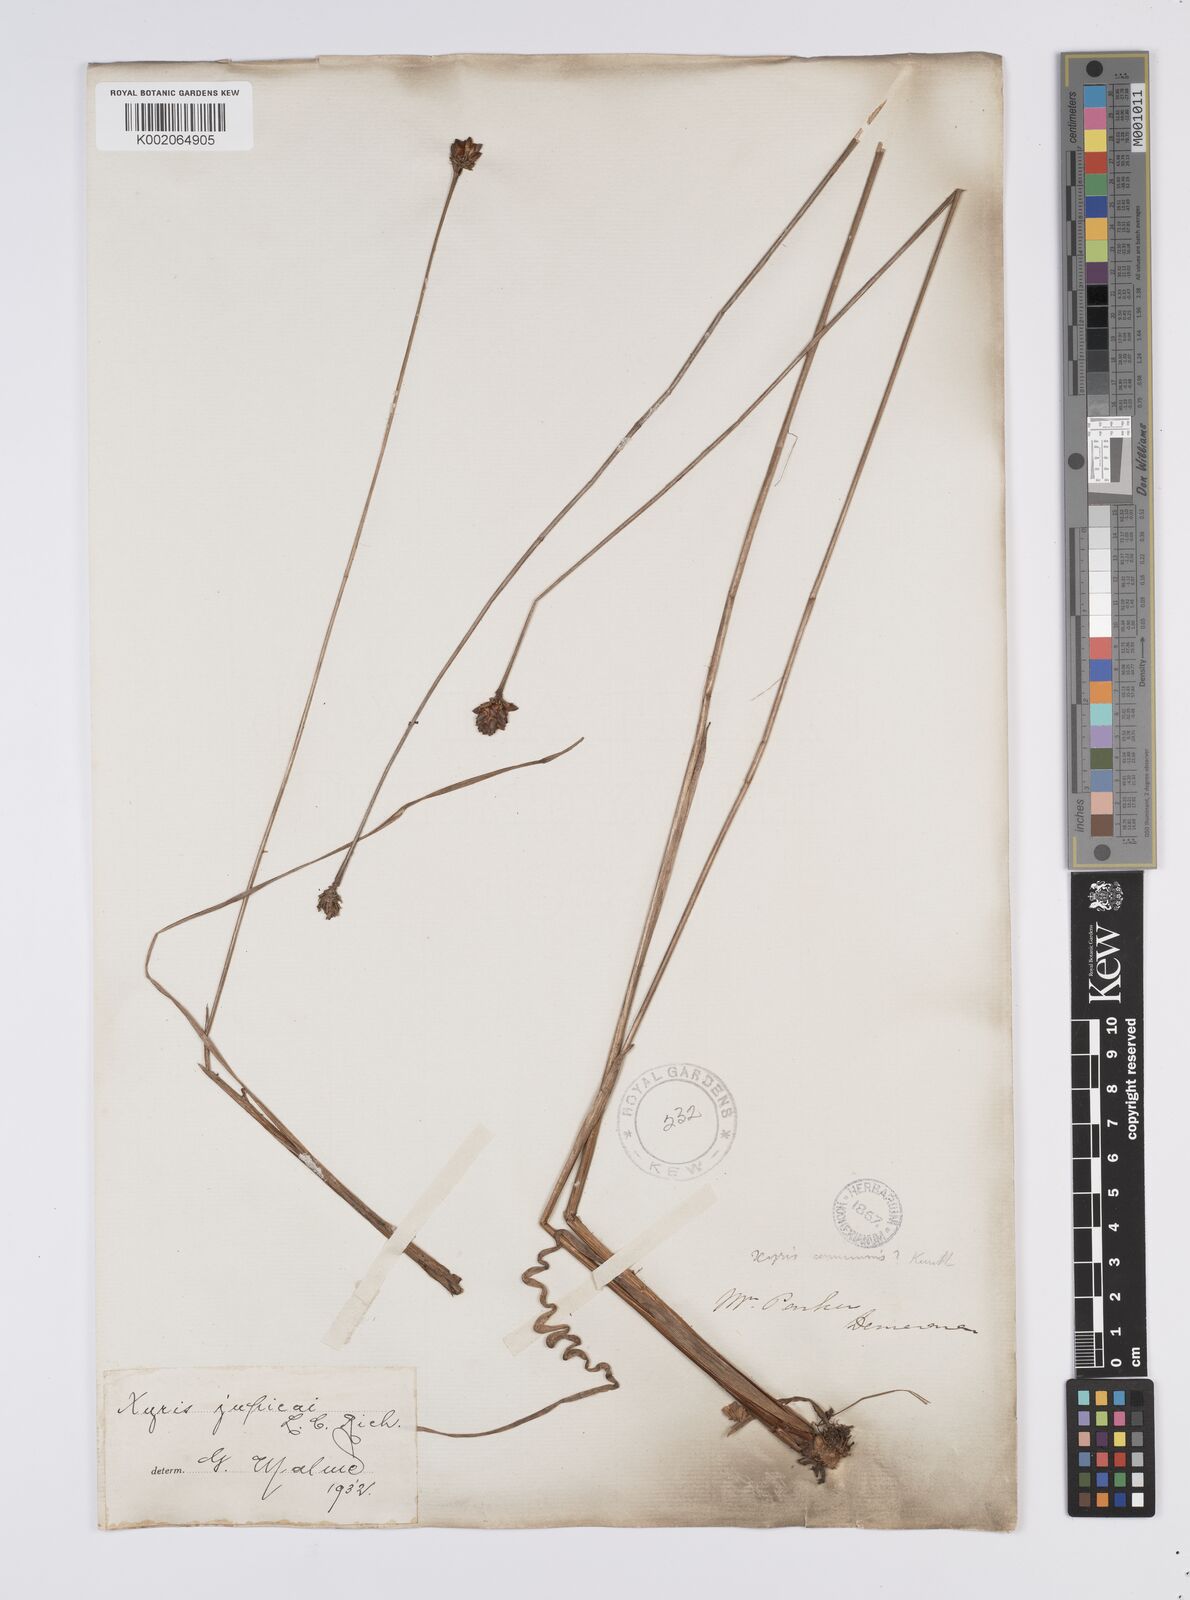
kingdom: Plantae
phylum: Tracheophyta
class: Liliopsida
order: Poales
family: Xyridaceae
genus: Xyris
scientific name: Xyris jupicai
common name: Richard's yelloweyed grass
